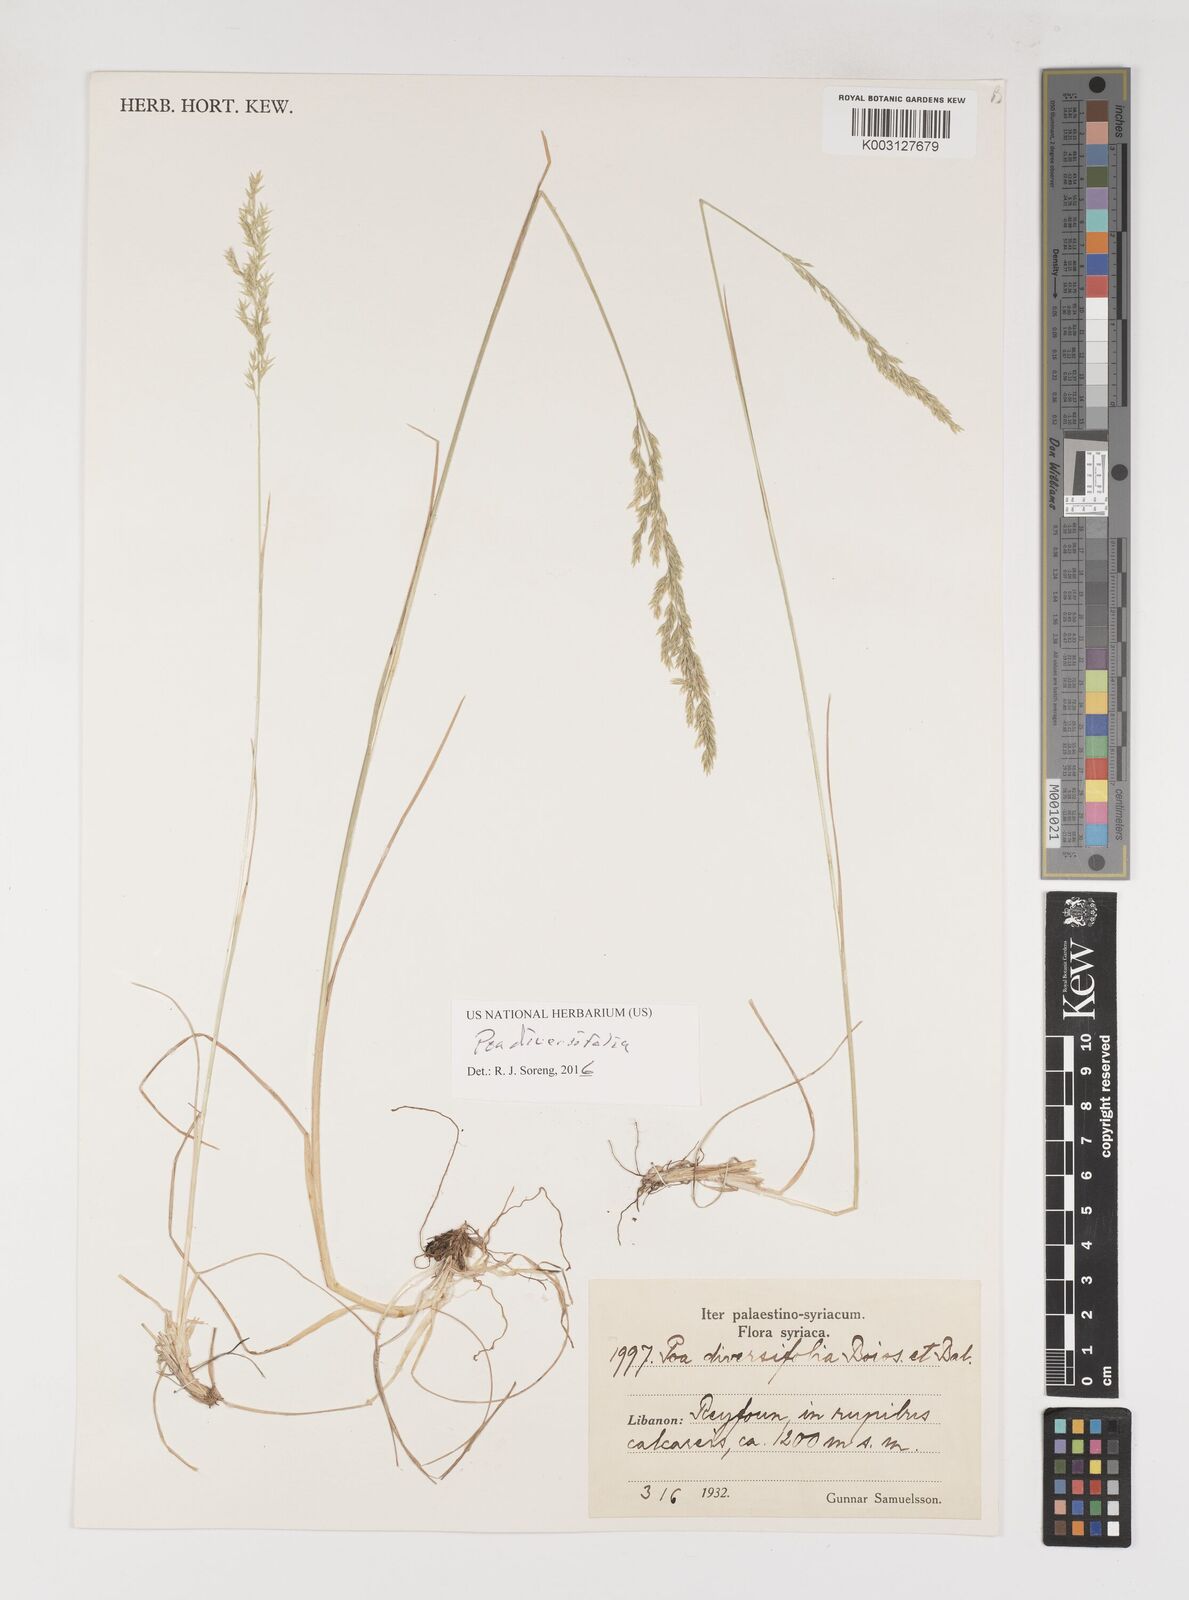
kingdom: Plantae
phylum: Tracheophyta
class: Liliopsida
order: Poales
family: Poaceae
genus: Poa
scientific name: Poa diversifolia
